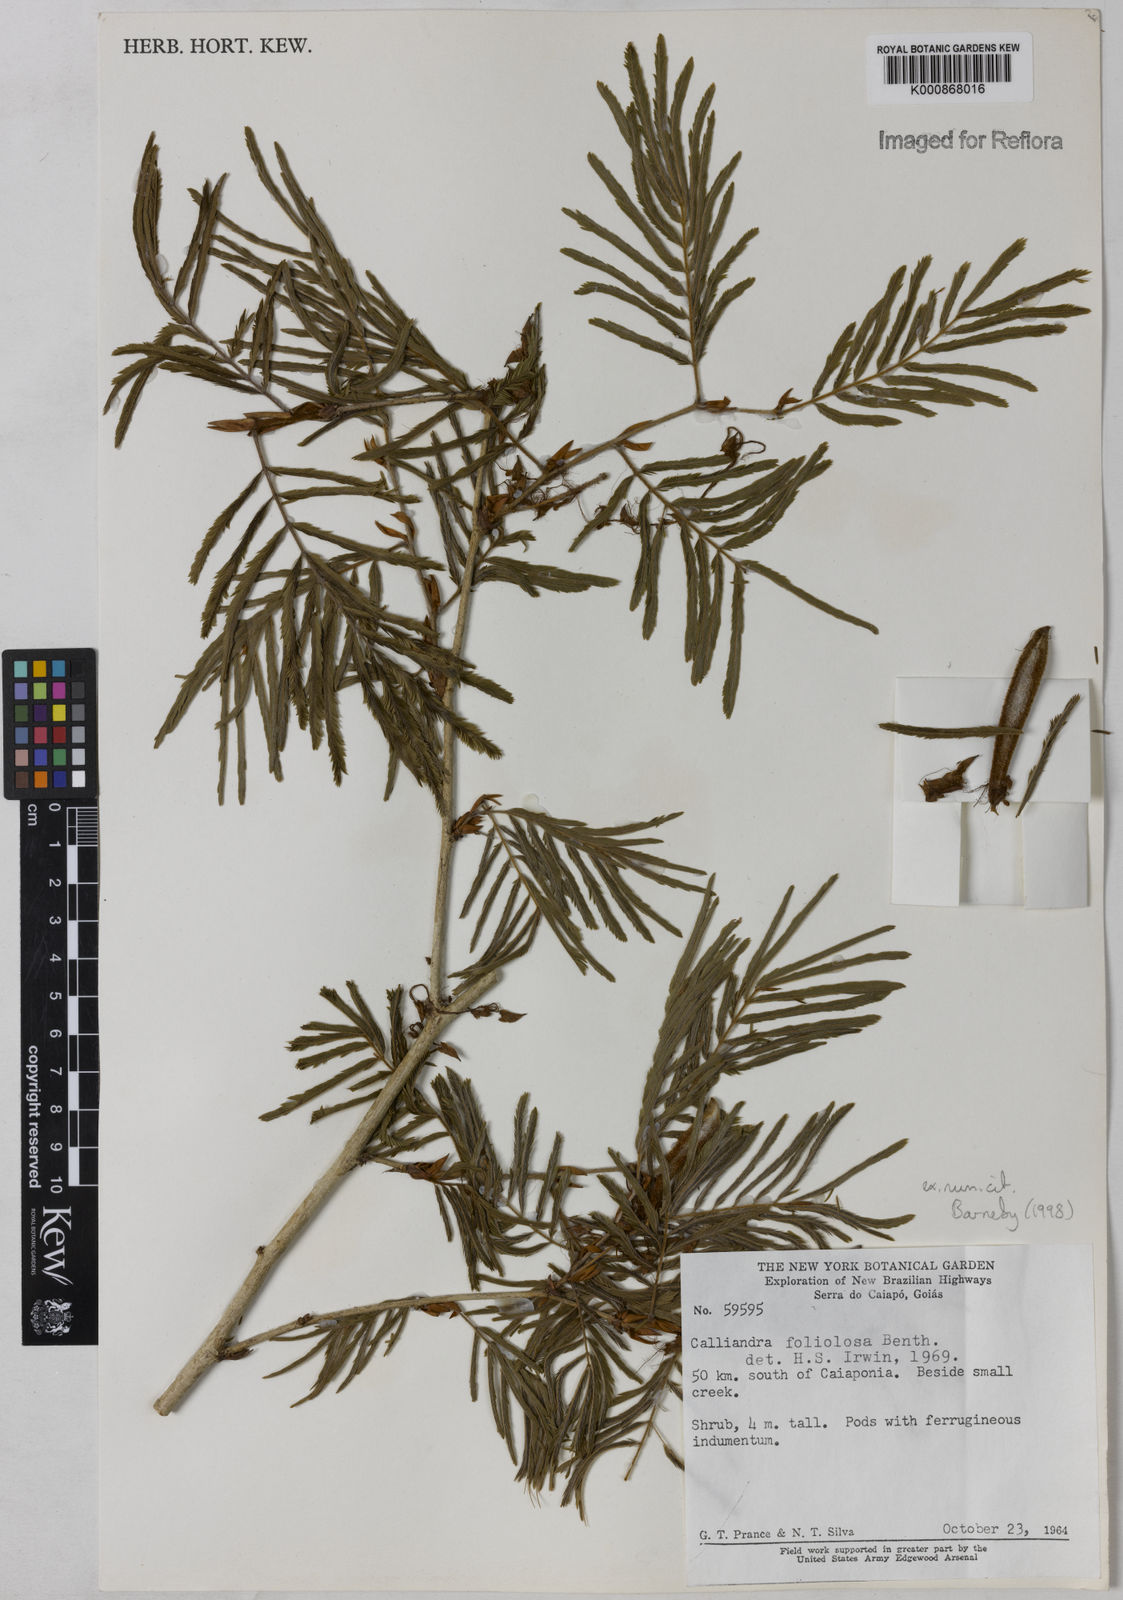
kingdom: Plantae
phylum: Tracheophyta
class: Magnoliopsida
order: Fabales
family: Fabaceae
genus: Calliandra
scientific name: Calliandra foliolosa
